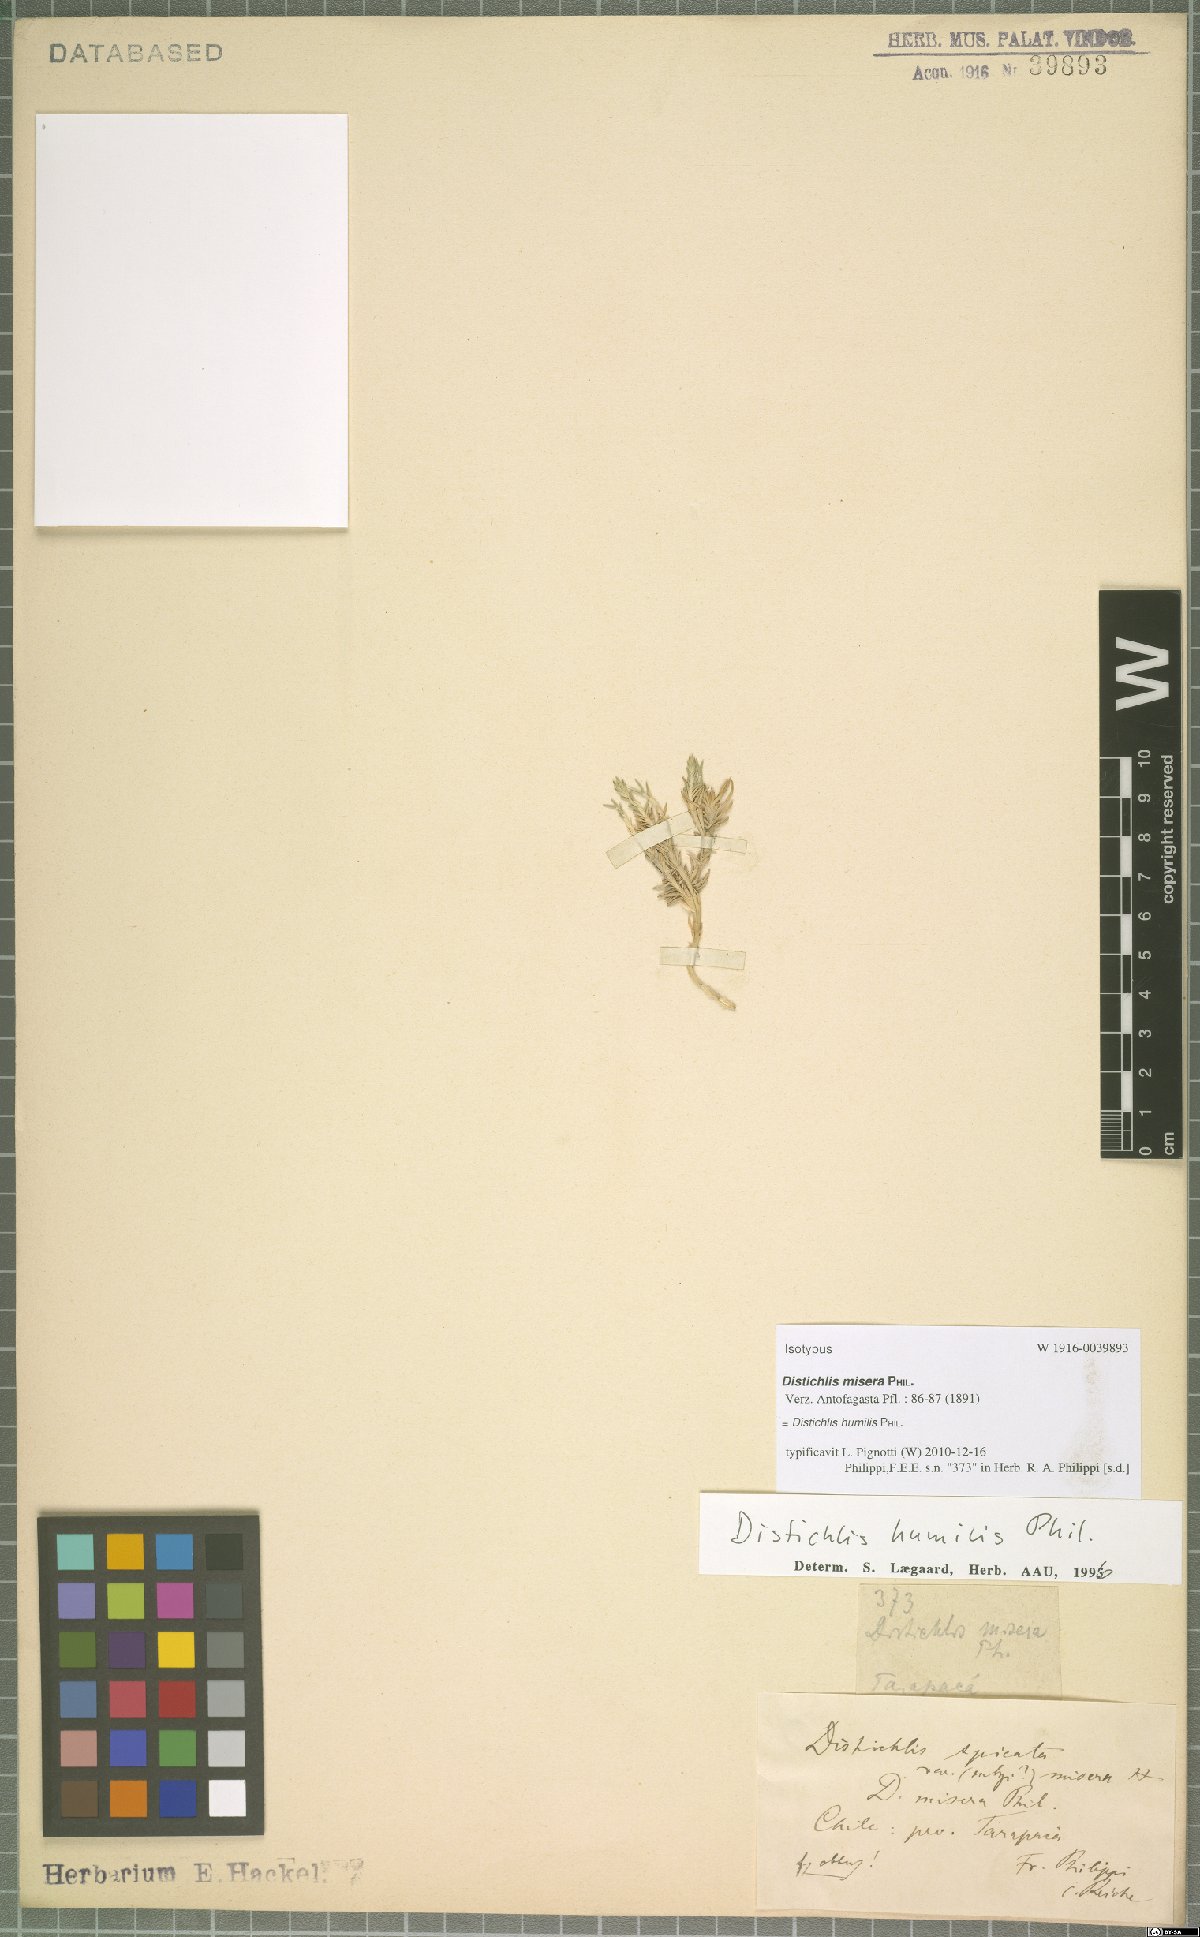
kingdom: Plantae
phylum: Tracheophyta
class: Liliopsida
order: Poales
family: Poaceae
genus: Distichlis
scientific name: Distichlis humilis
